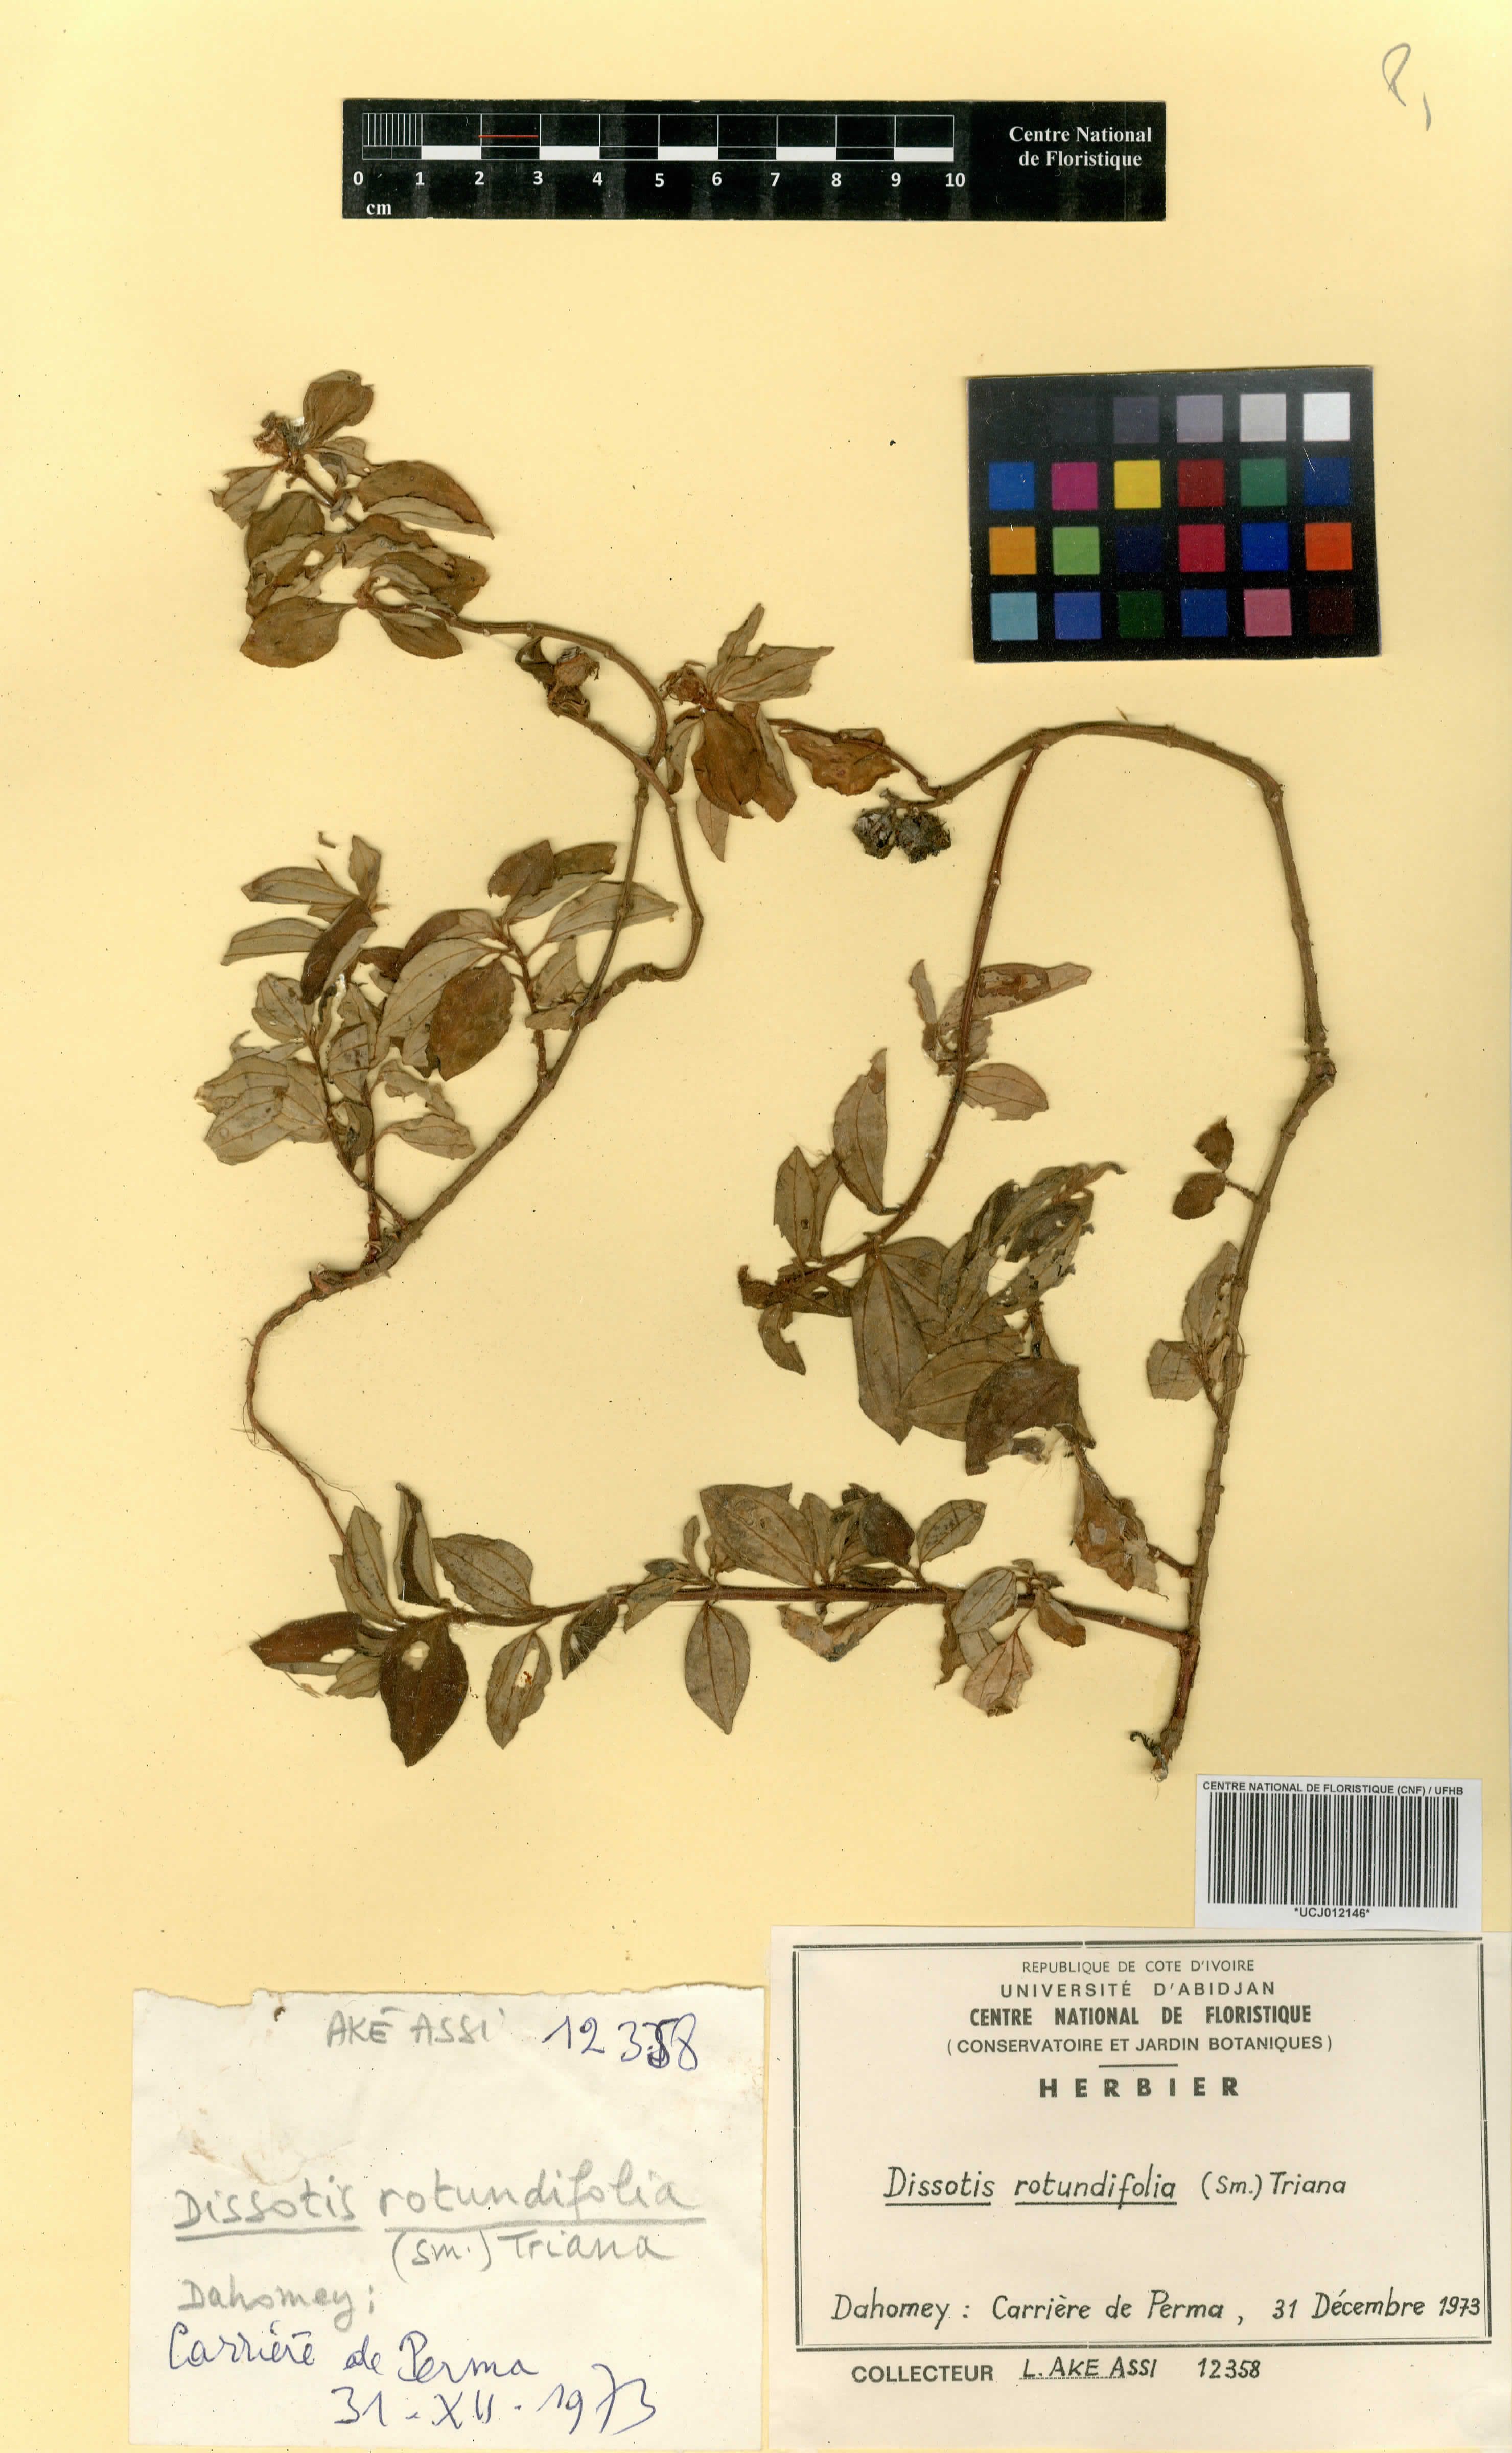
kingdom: Plantae
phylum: Tracheophyta
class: Magnoliopsida
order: Myrtales
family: Melastomataceae
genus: Heterotis
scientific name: Heterotis rotundifolia
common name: Pinklady
